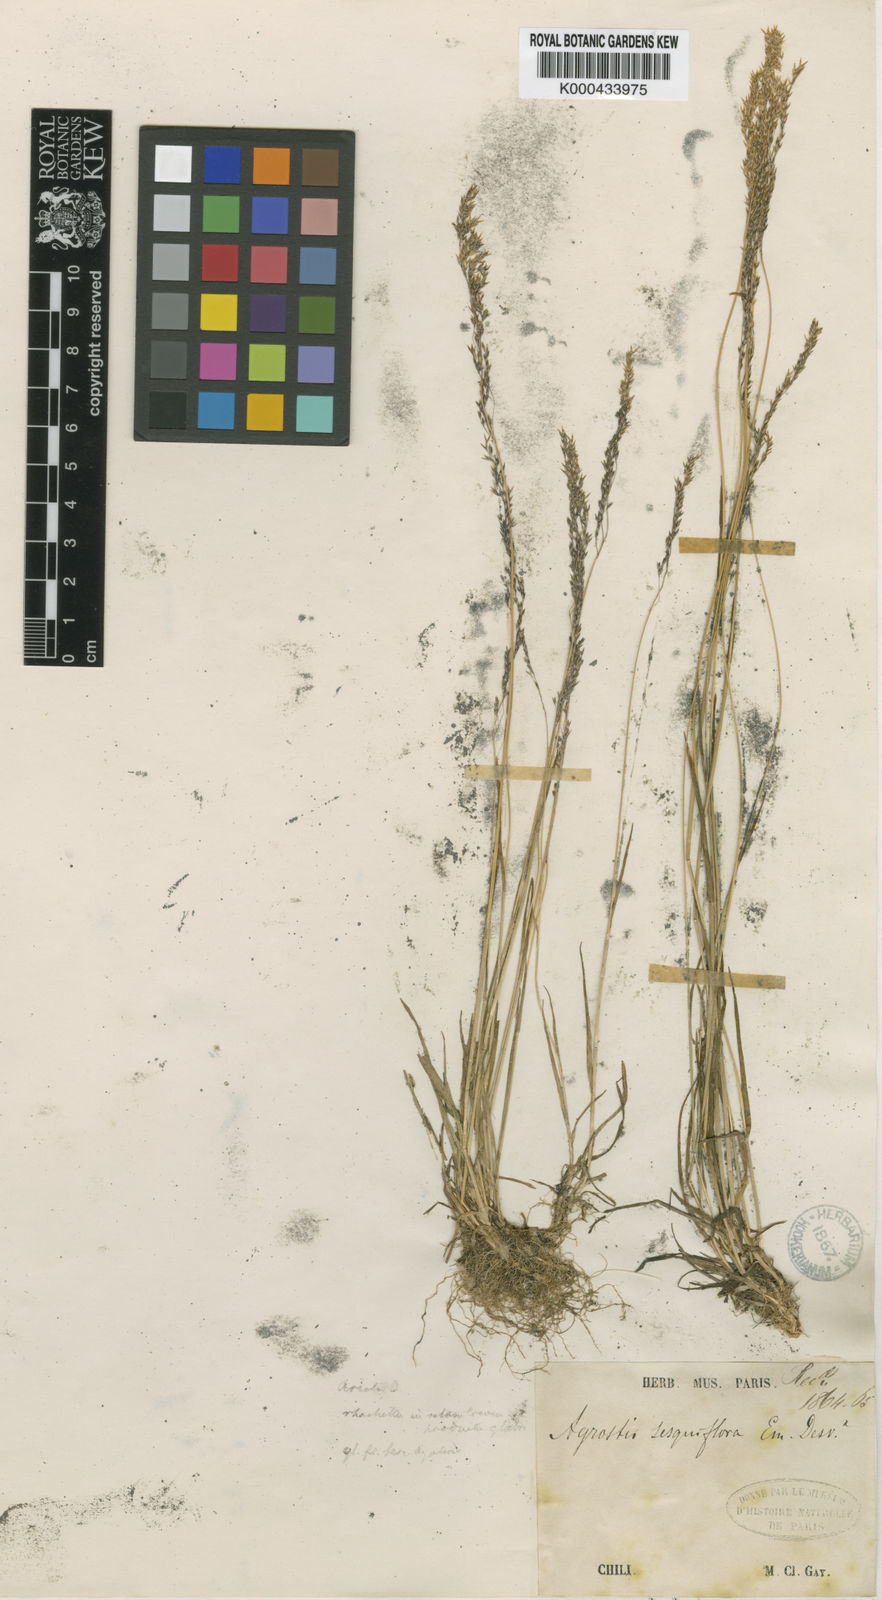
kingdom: Plantae
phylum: Tracheophyta
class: Liliopsida
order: Poales
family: Poaceae
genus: Podagrostis
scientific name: Podagrostis sesquiflora
